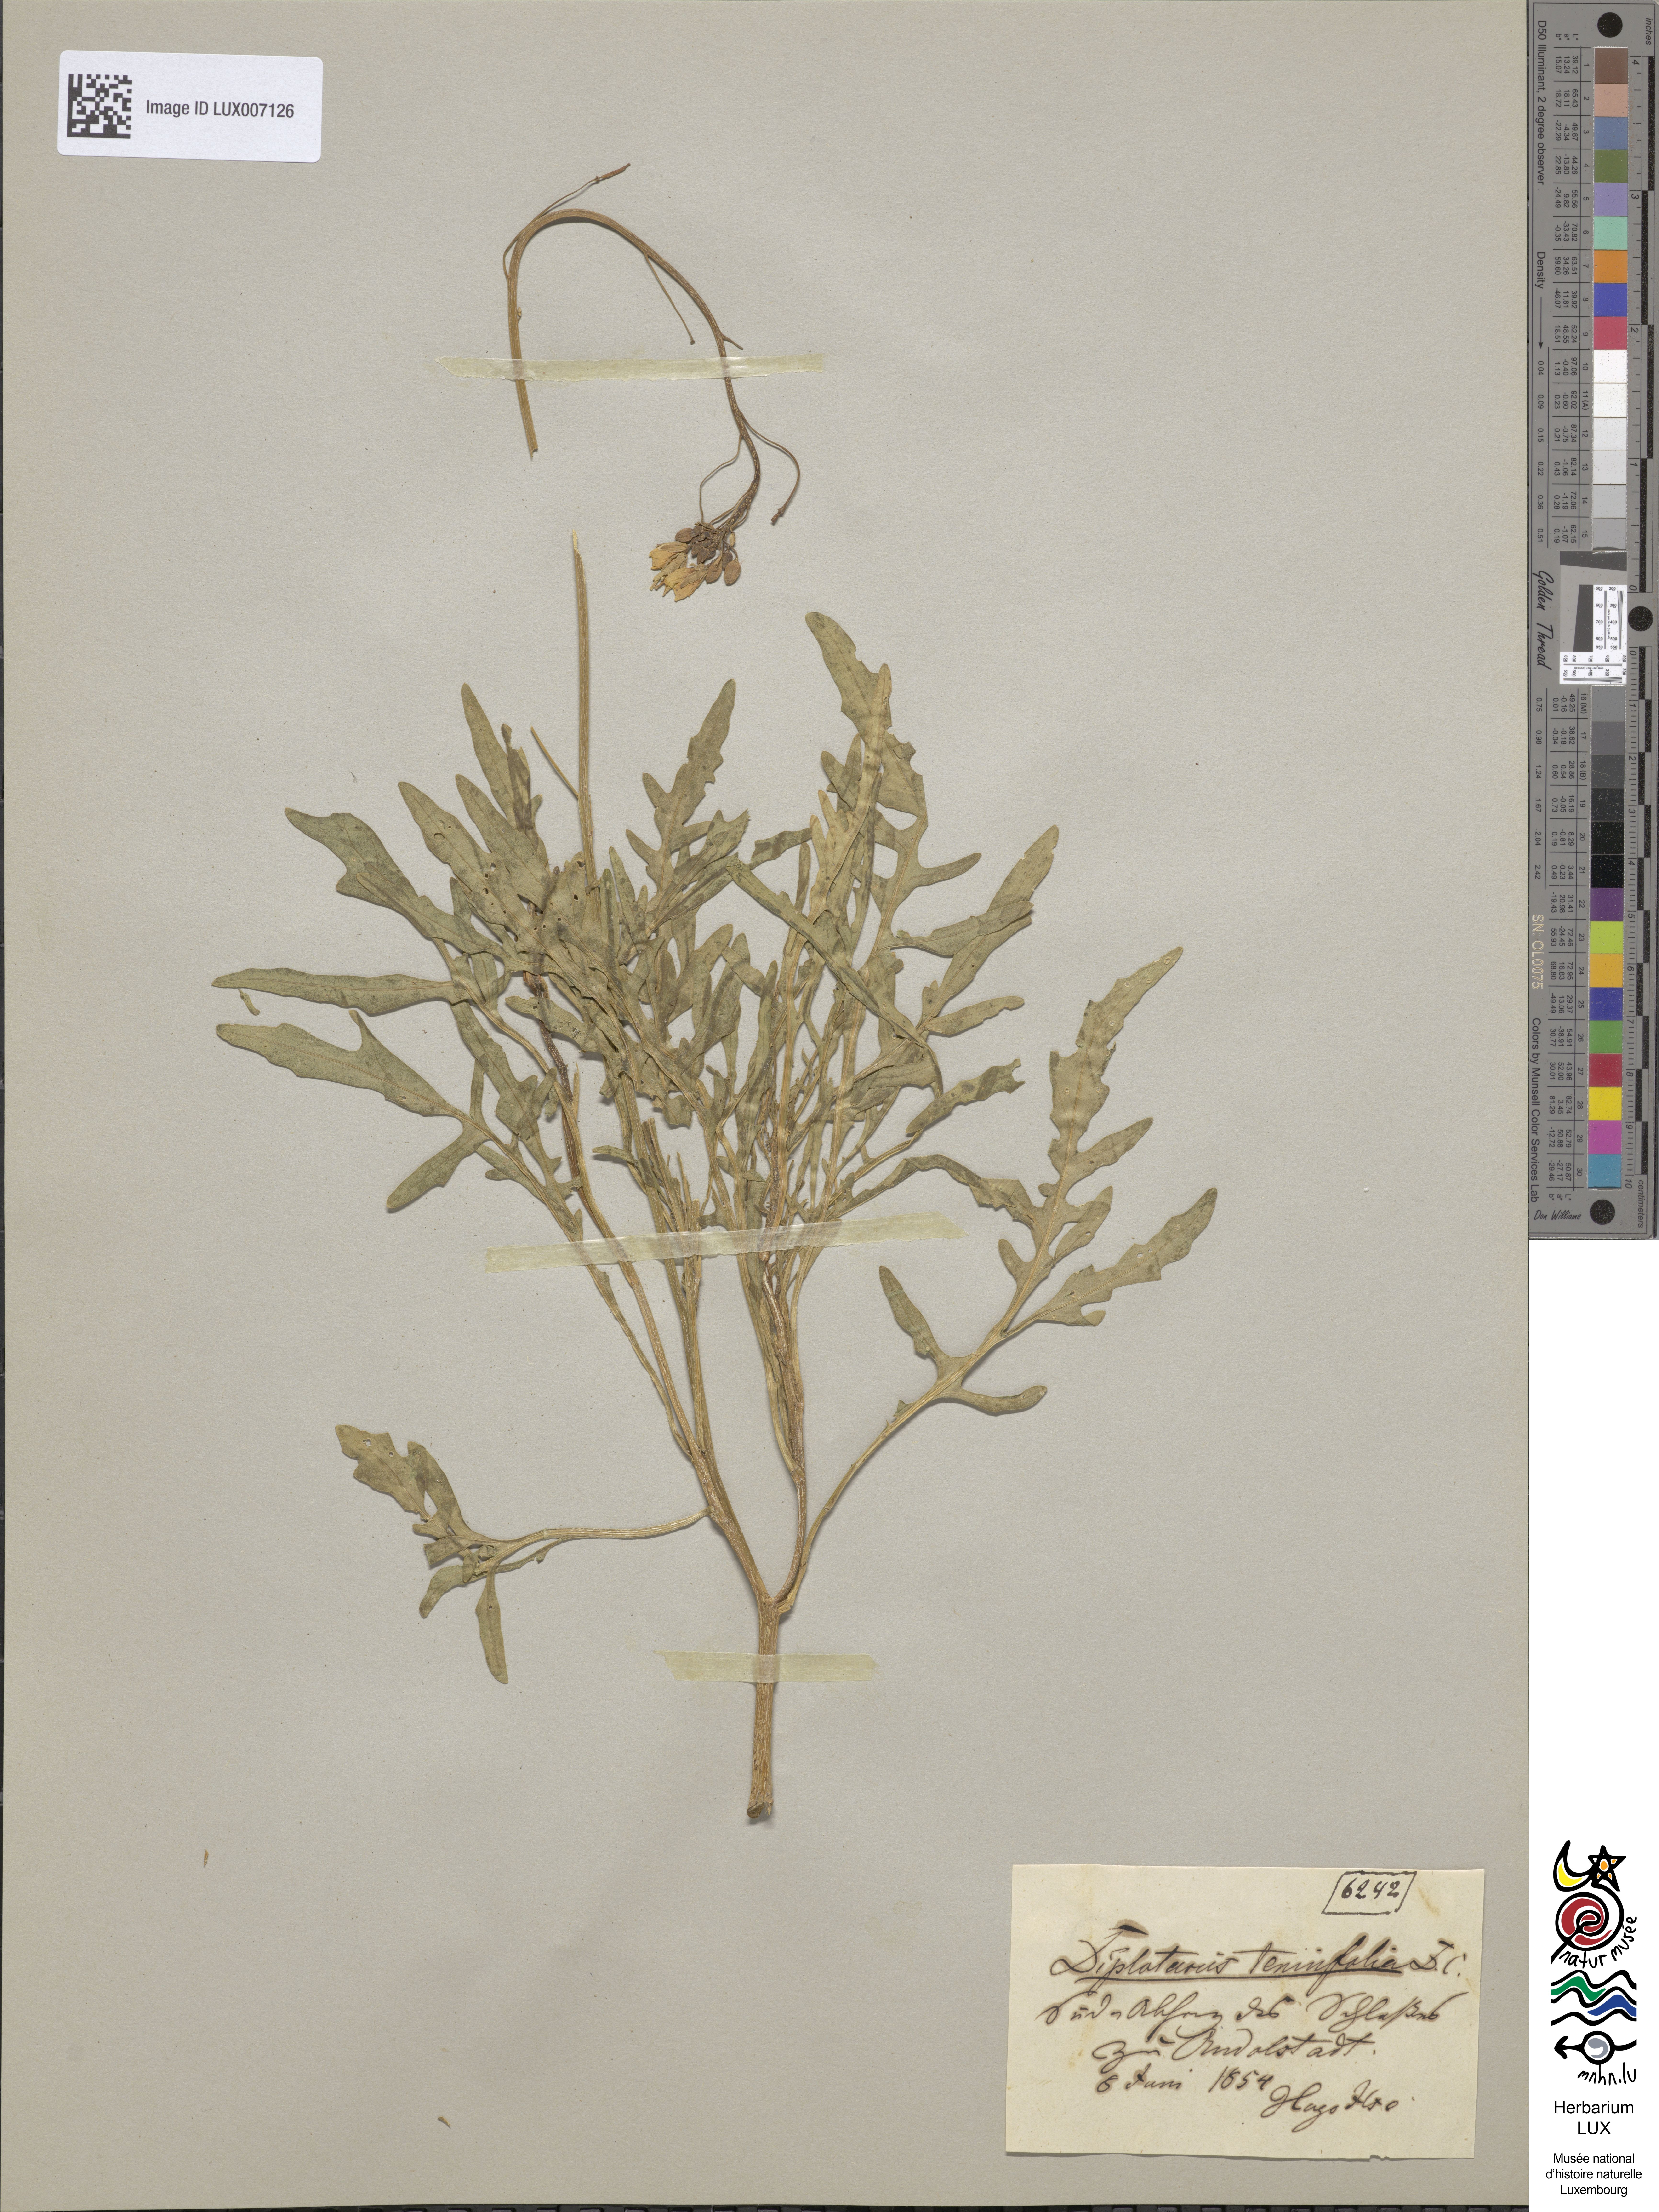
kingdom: Plantae
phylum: Tracheophyta
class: Magnoliopsida
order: Brassicales
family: Brassicaceae
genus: Diplotaxis
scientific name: Diplotaxis tenuifolia
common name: Perennial wall-rocket
